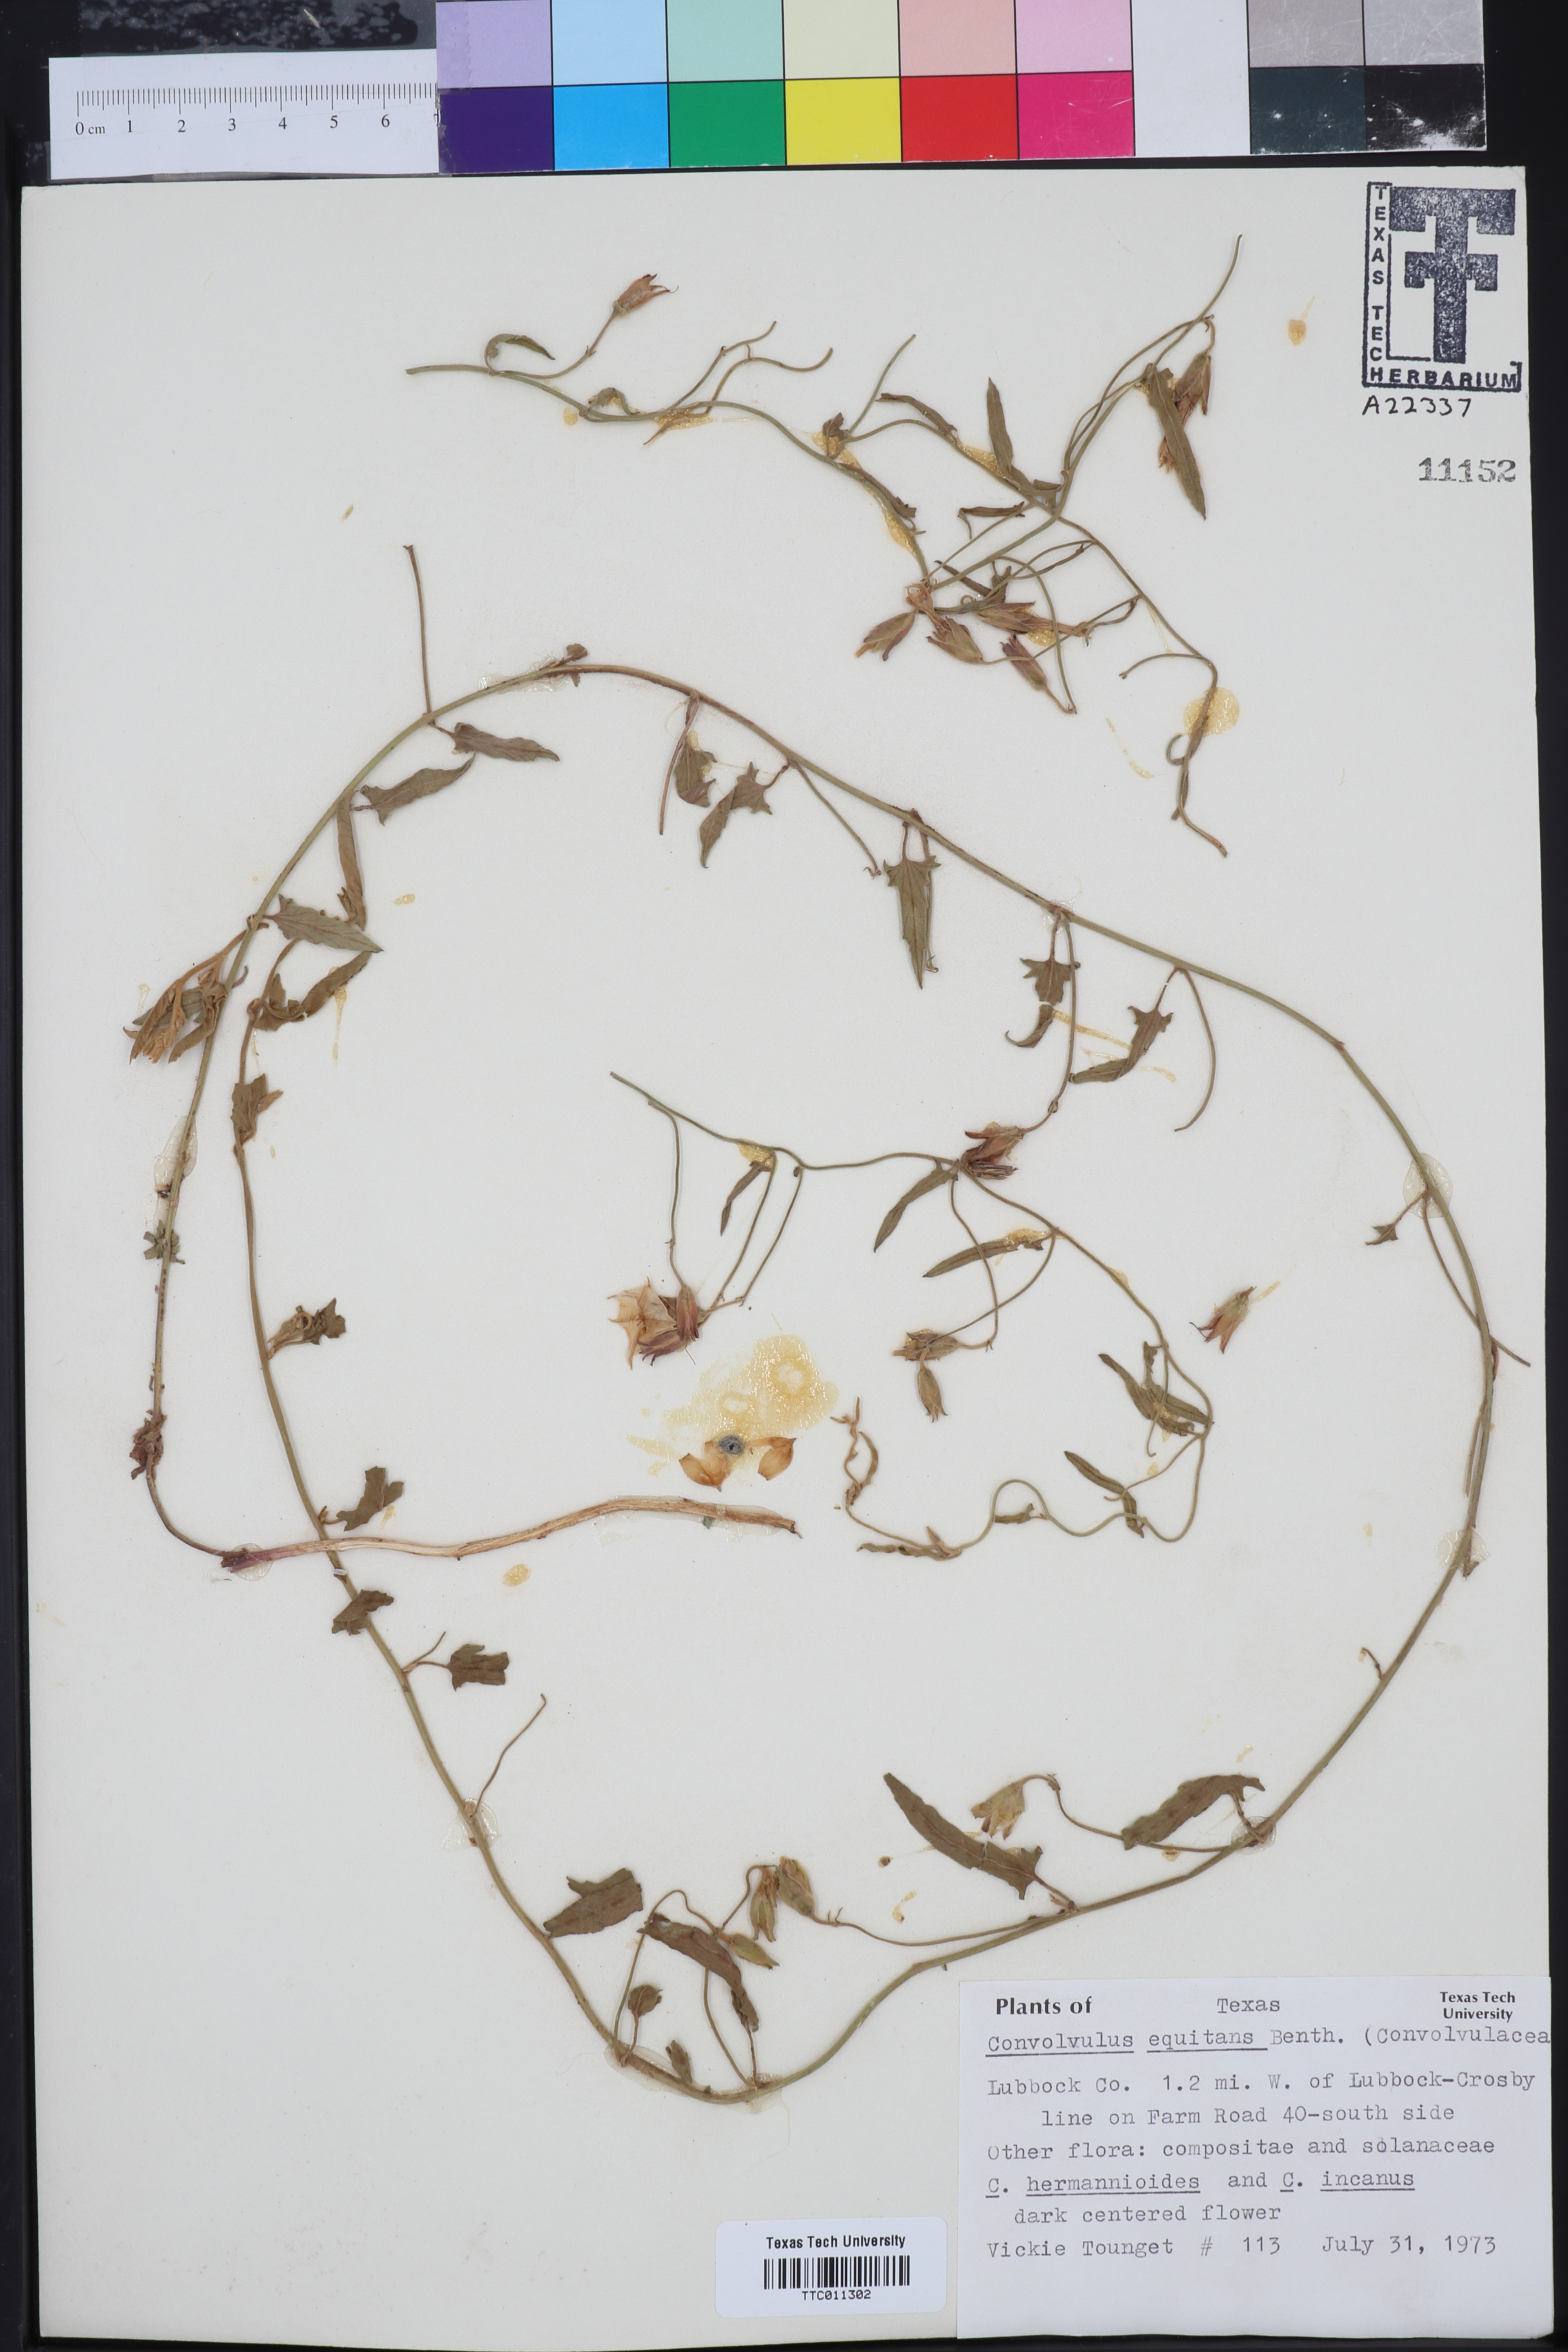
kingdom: Plantae
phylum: Tracheophyta
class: Magnoliopsida
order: Solanales
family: Convolvulaceae
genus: Convolvulus
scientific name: Convolvulus equitans
